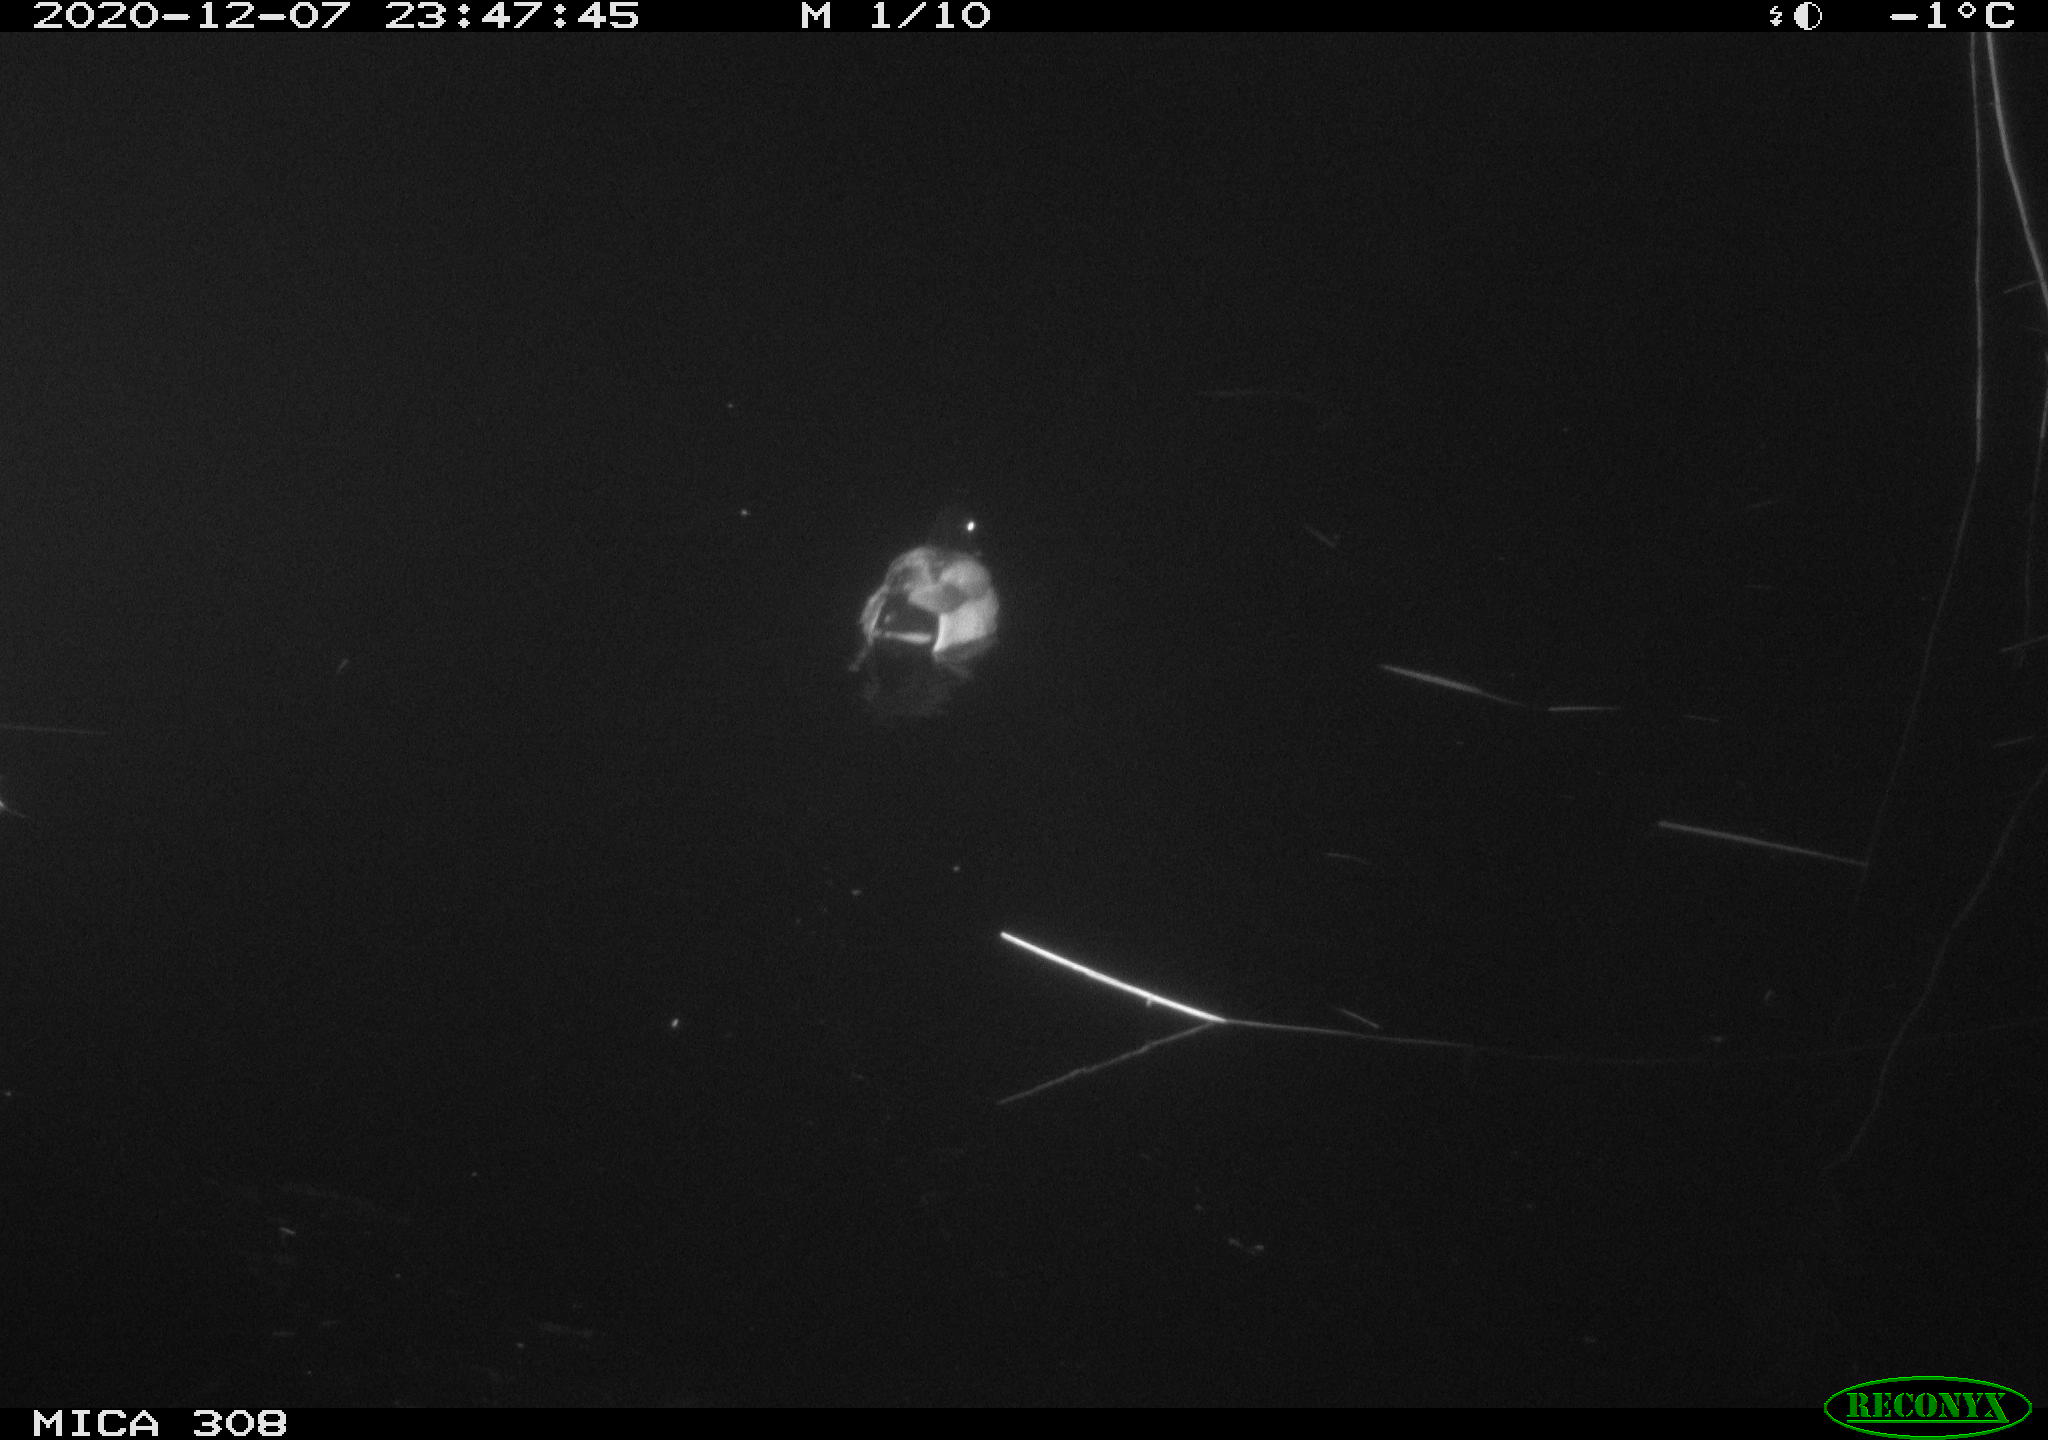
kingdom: Animalia
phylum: Chordata
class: Aves
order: Anseriformes
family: Anatidae
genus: Anas
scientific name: Anas platyrhynchos
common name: Mallard
